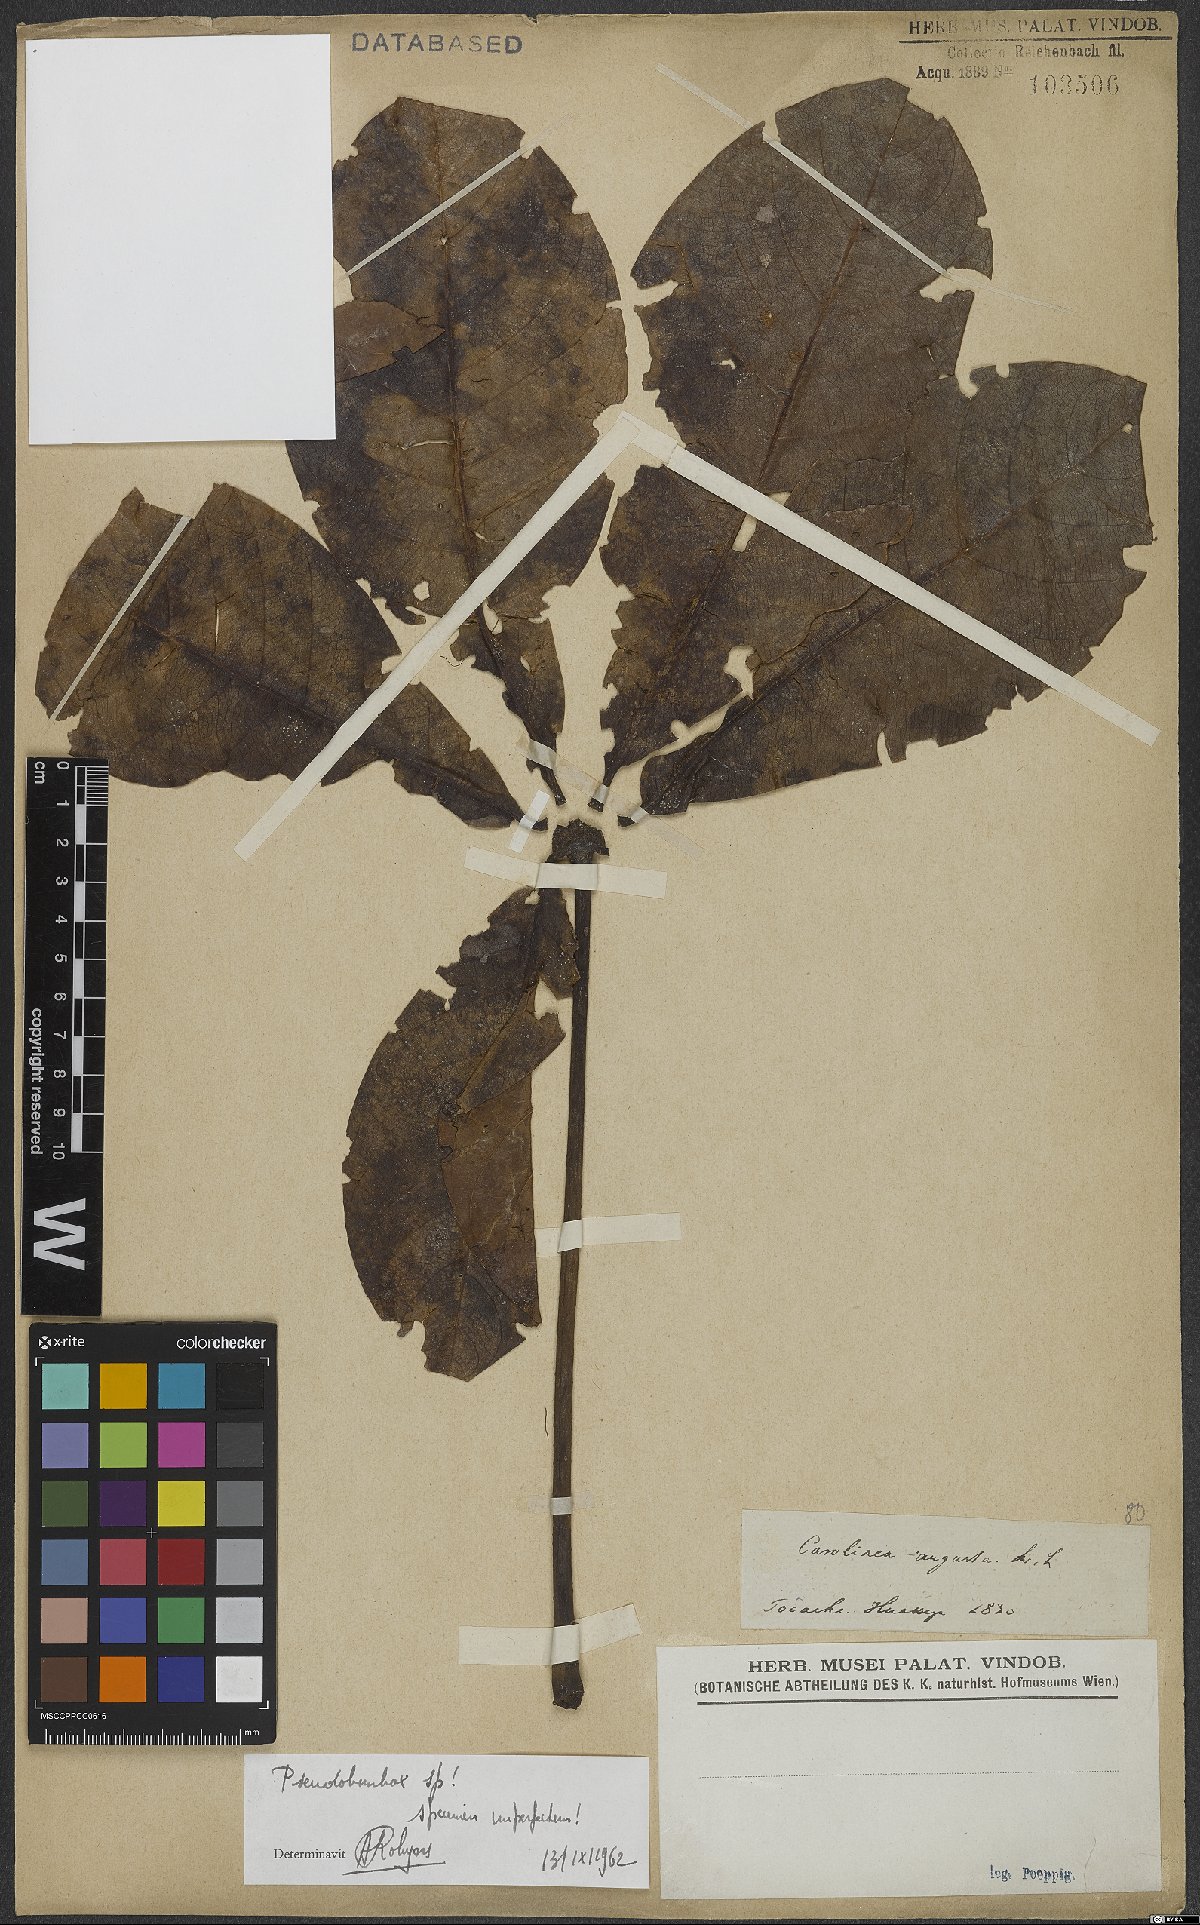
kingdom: Plantae
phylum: Tracheophyta
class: Magnoliopsida
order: Malvales
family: Malvaceae
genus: Pseudobombax
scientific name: Pseudobombax
